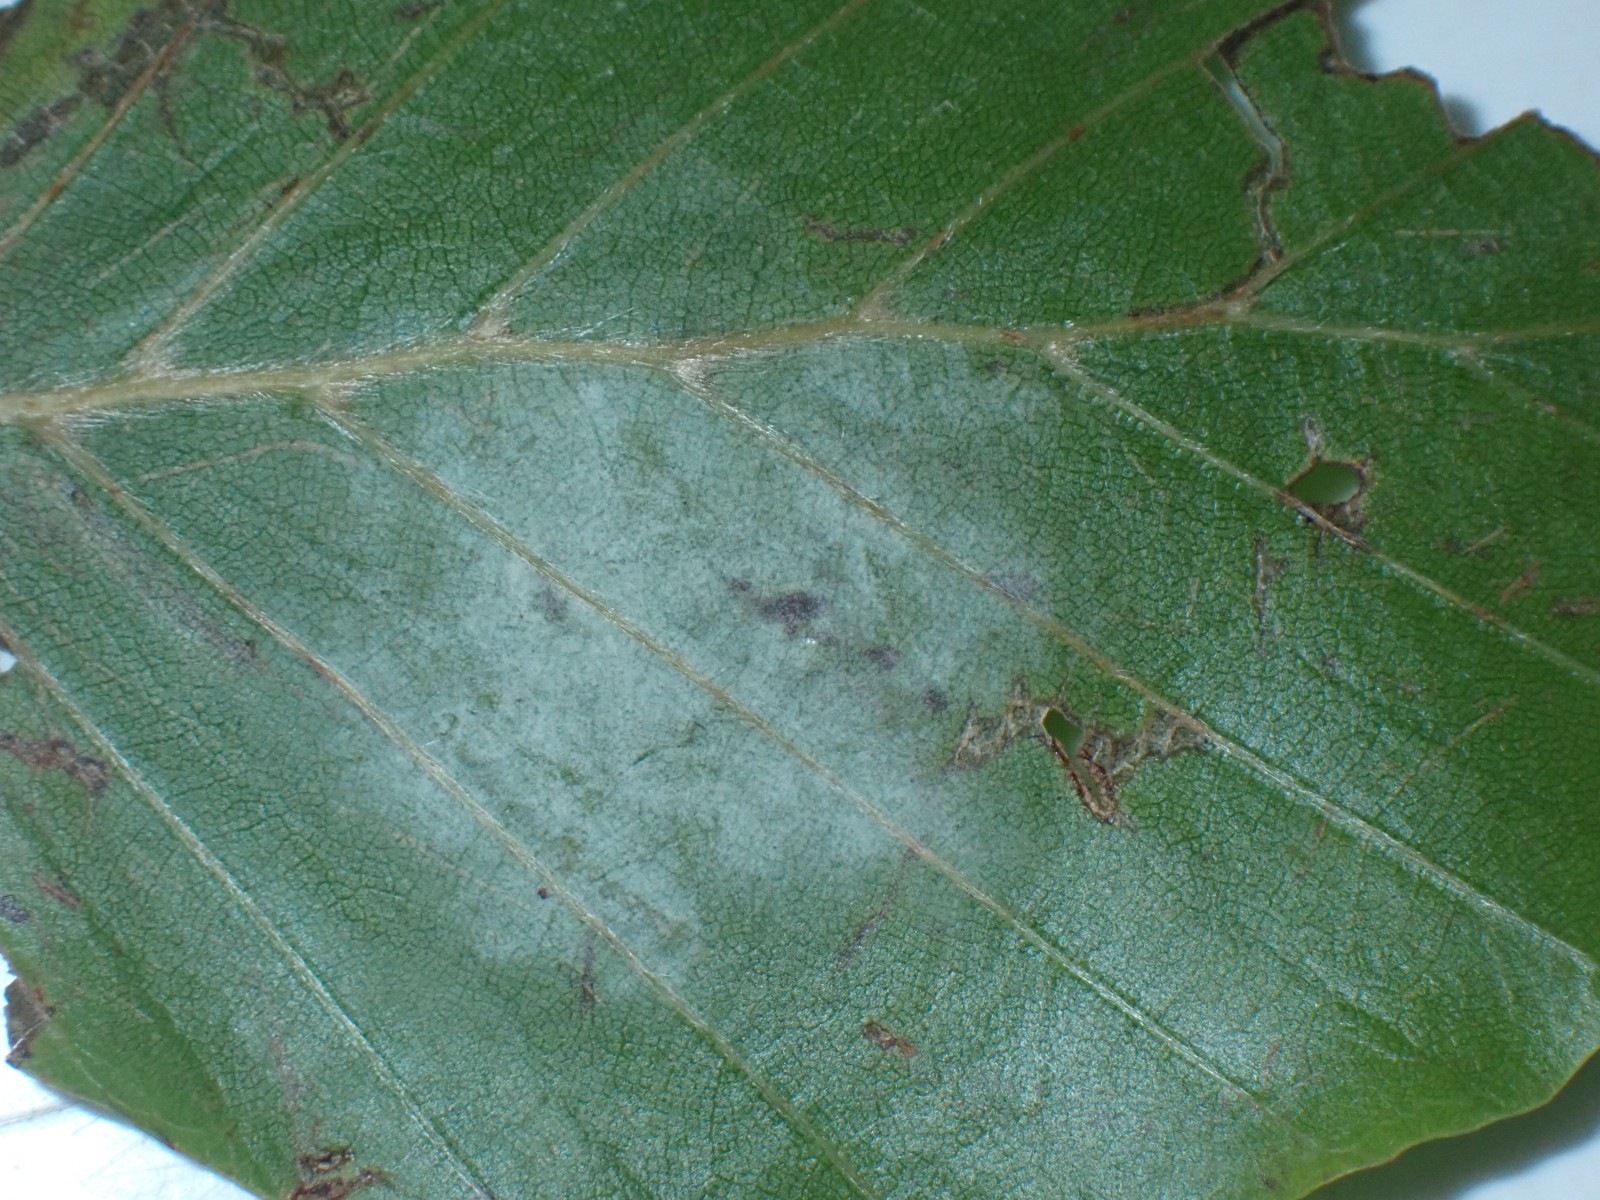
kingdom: Fungi
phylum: Ascomycota
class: Leotiomycetes
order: Helotiales
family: Erysiphaceae
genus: Phyllactinia
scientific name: Phyllactinia orbicularis
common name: bøge-meldug
